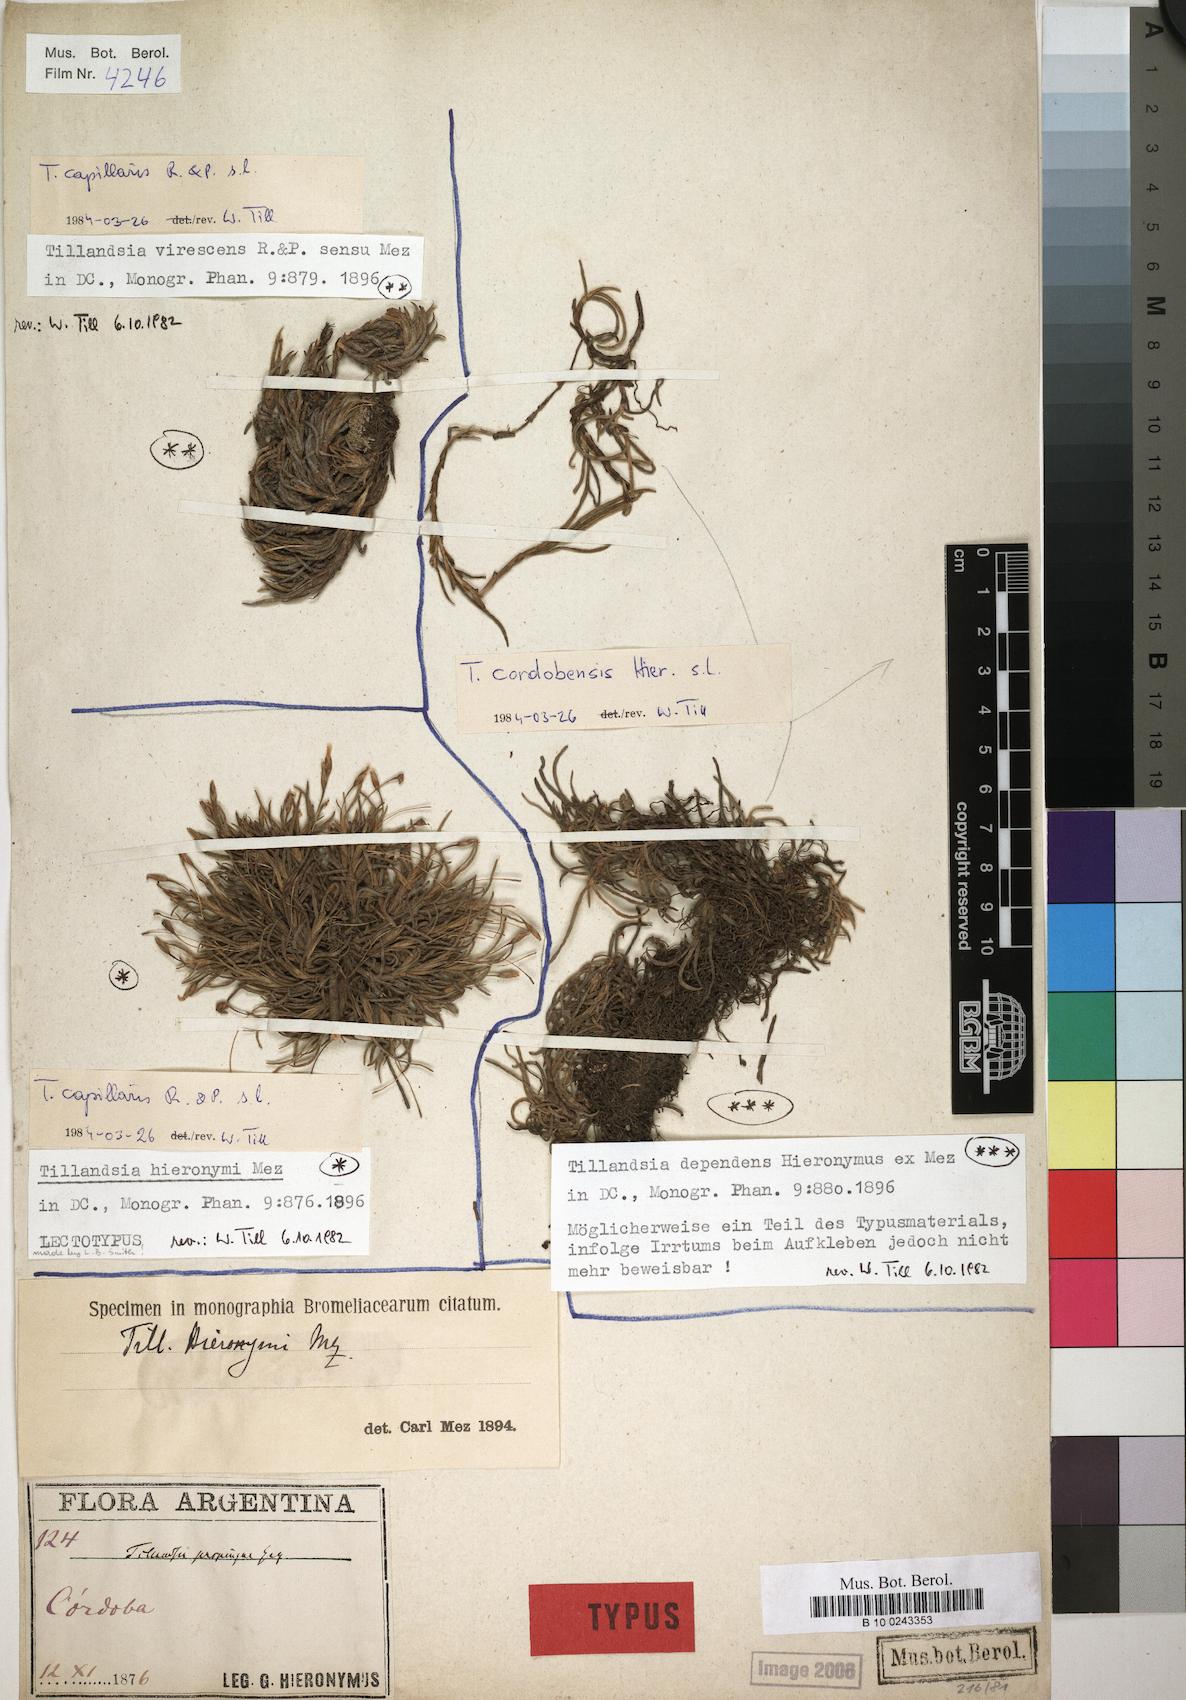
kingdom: Plantae
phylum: Tracheophyta
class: Liliopsida
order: Poales
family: Bromeliaceae
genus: Tillandsia
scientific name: Tillandsia capillaris
